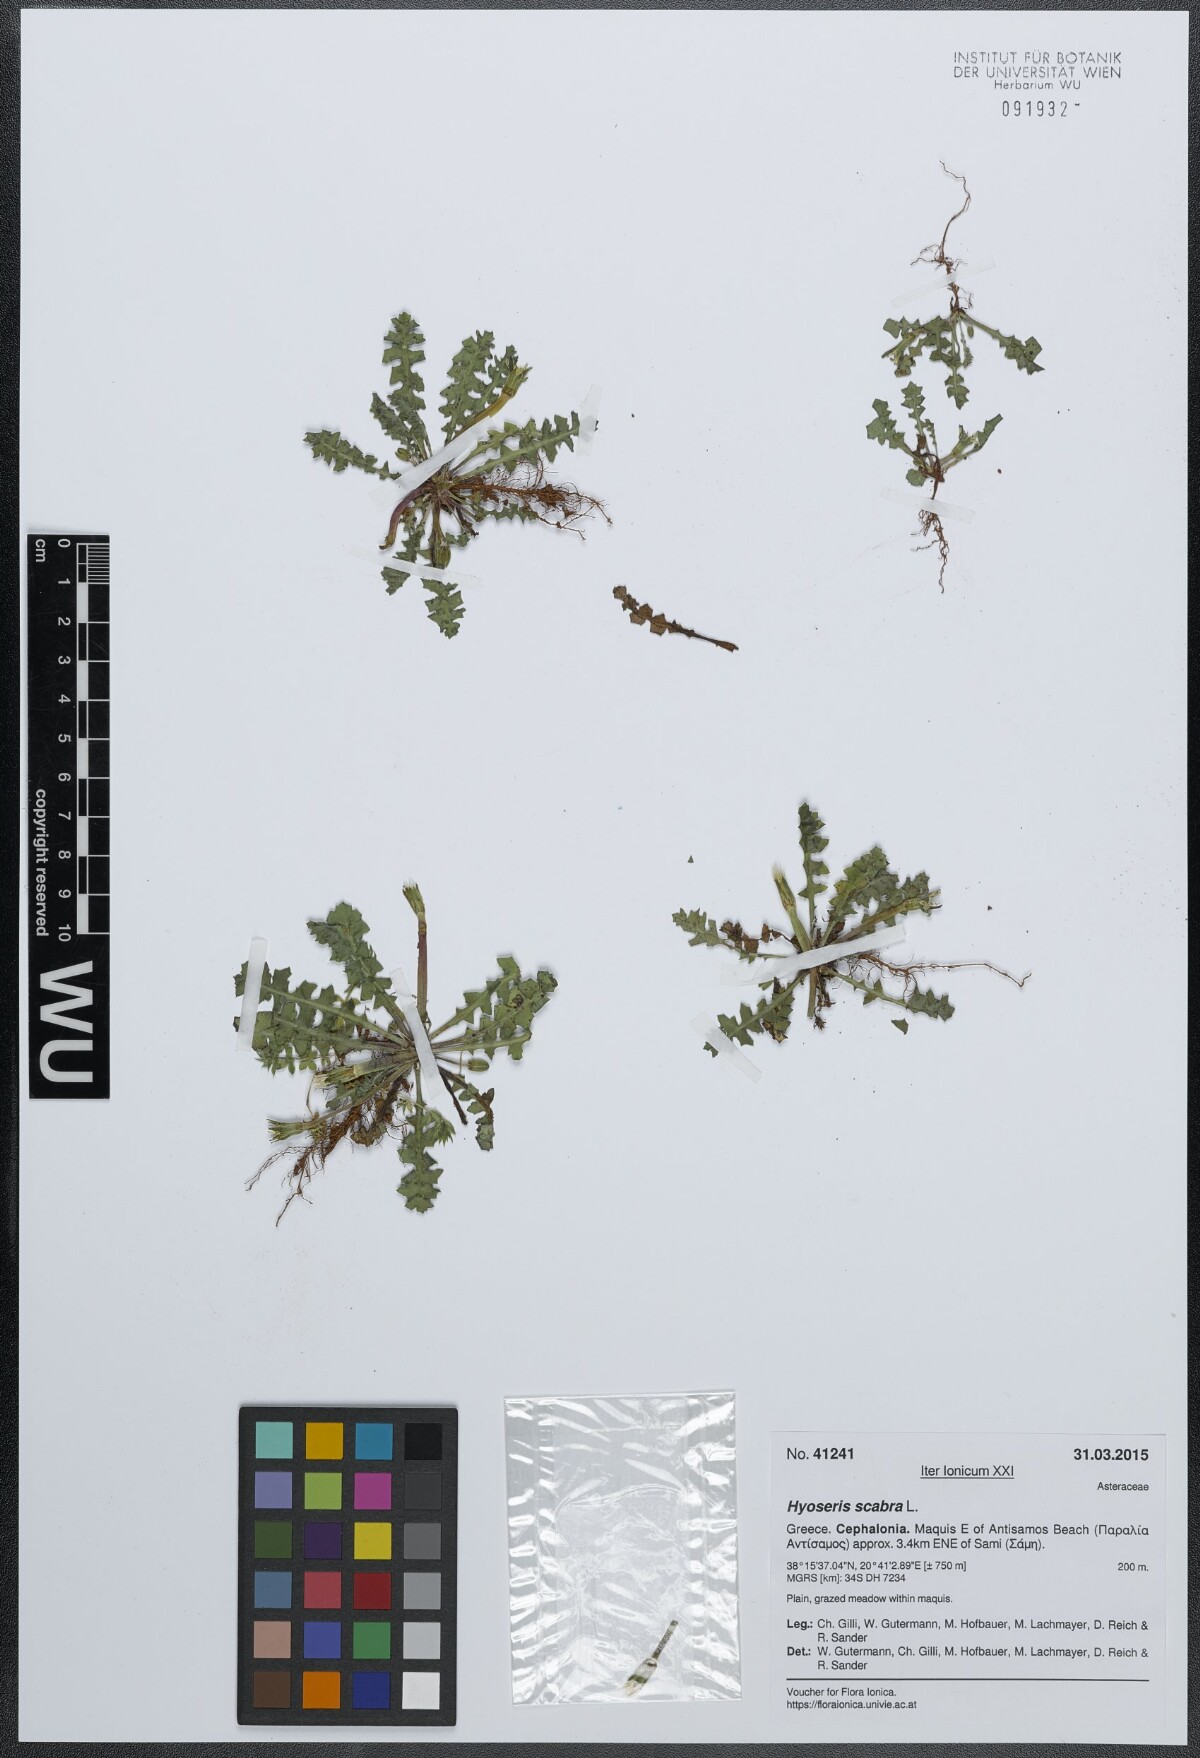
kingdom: Plantae
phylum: Tracheophyta
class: Magnoliopsida
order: Asterales
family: Asteraceae
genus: Hyoseris
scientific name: Hyoseris scabra
